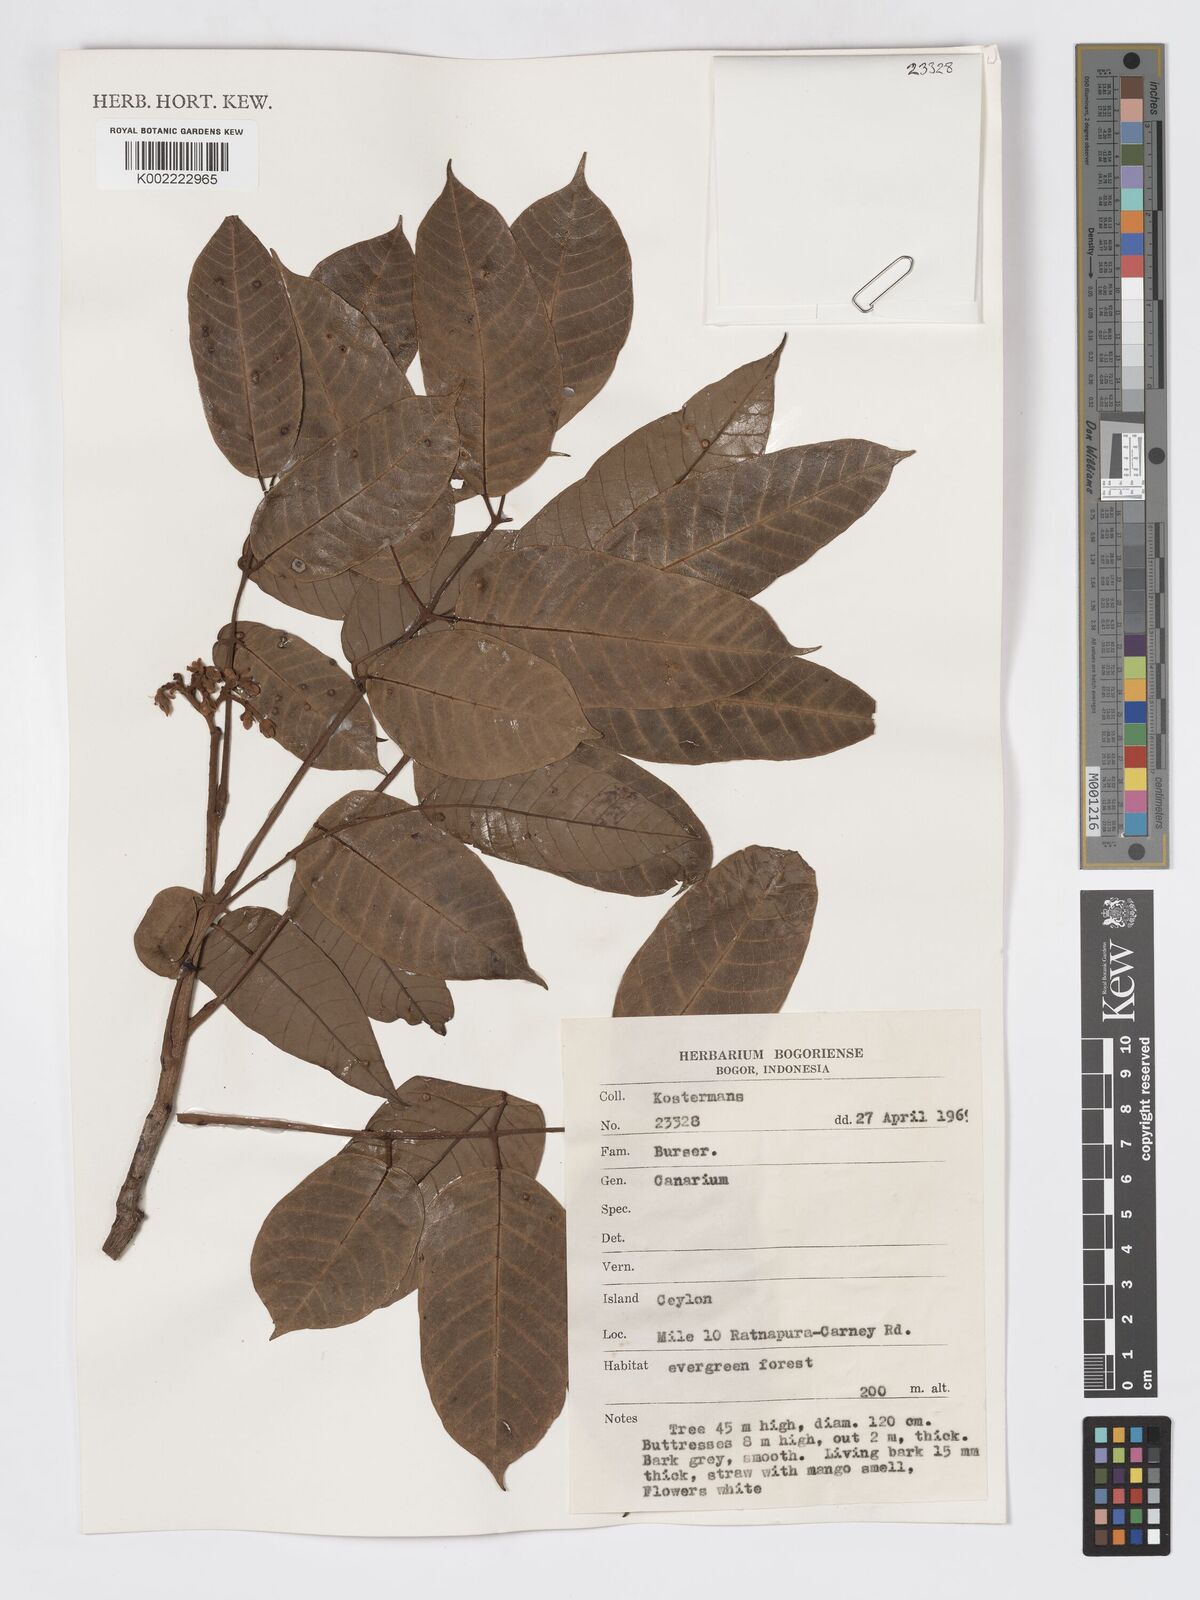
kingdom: Plantae
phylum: Tracheophyta
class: Magnoliopsida
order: Sapindales
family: Burseraceae
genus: Canarium
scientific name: Canarium
